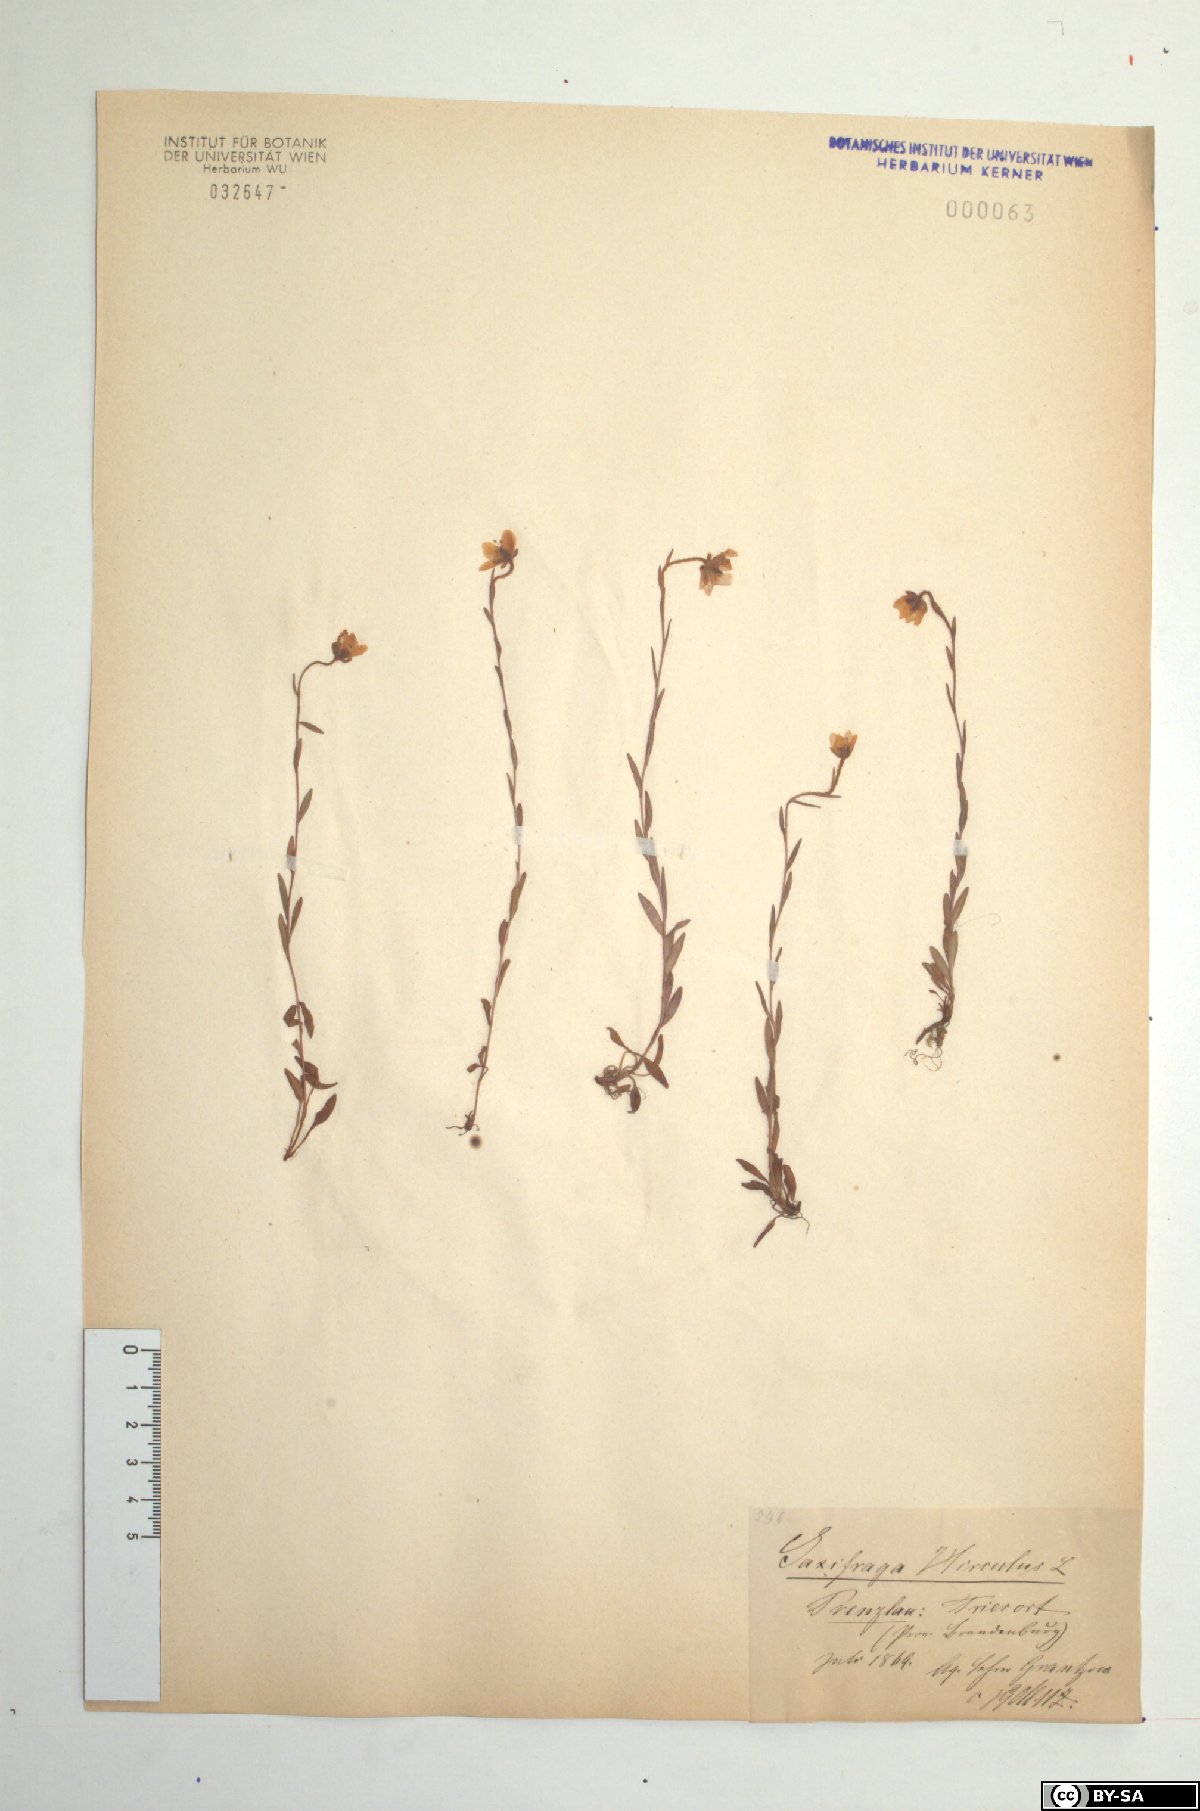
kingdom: Plantae
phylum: Tracheophyta
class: Magnoliopsida
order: Saxifragales
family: Saxifragaceae
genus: Saxifraga
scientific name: Saxifraga hirculus
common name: Yellow marsh saxifrage
